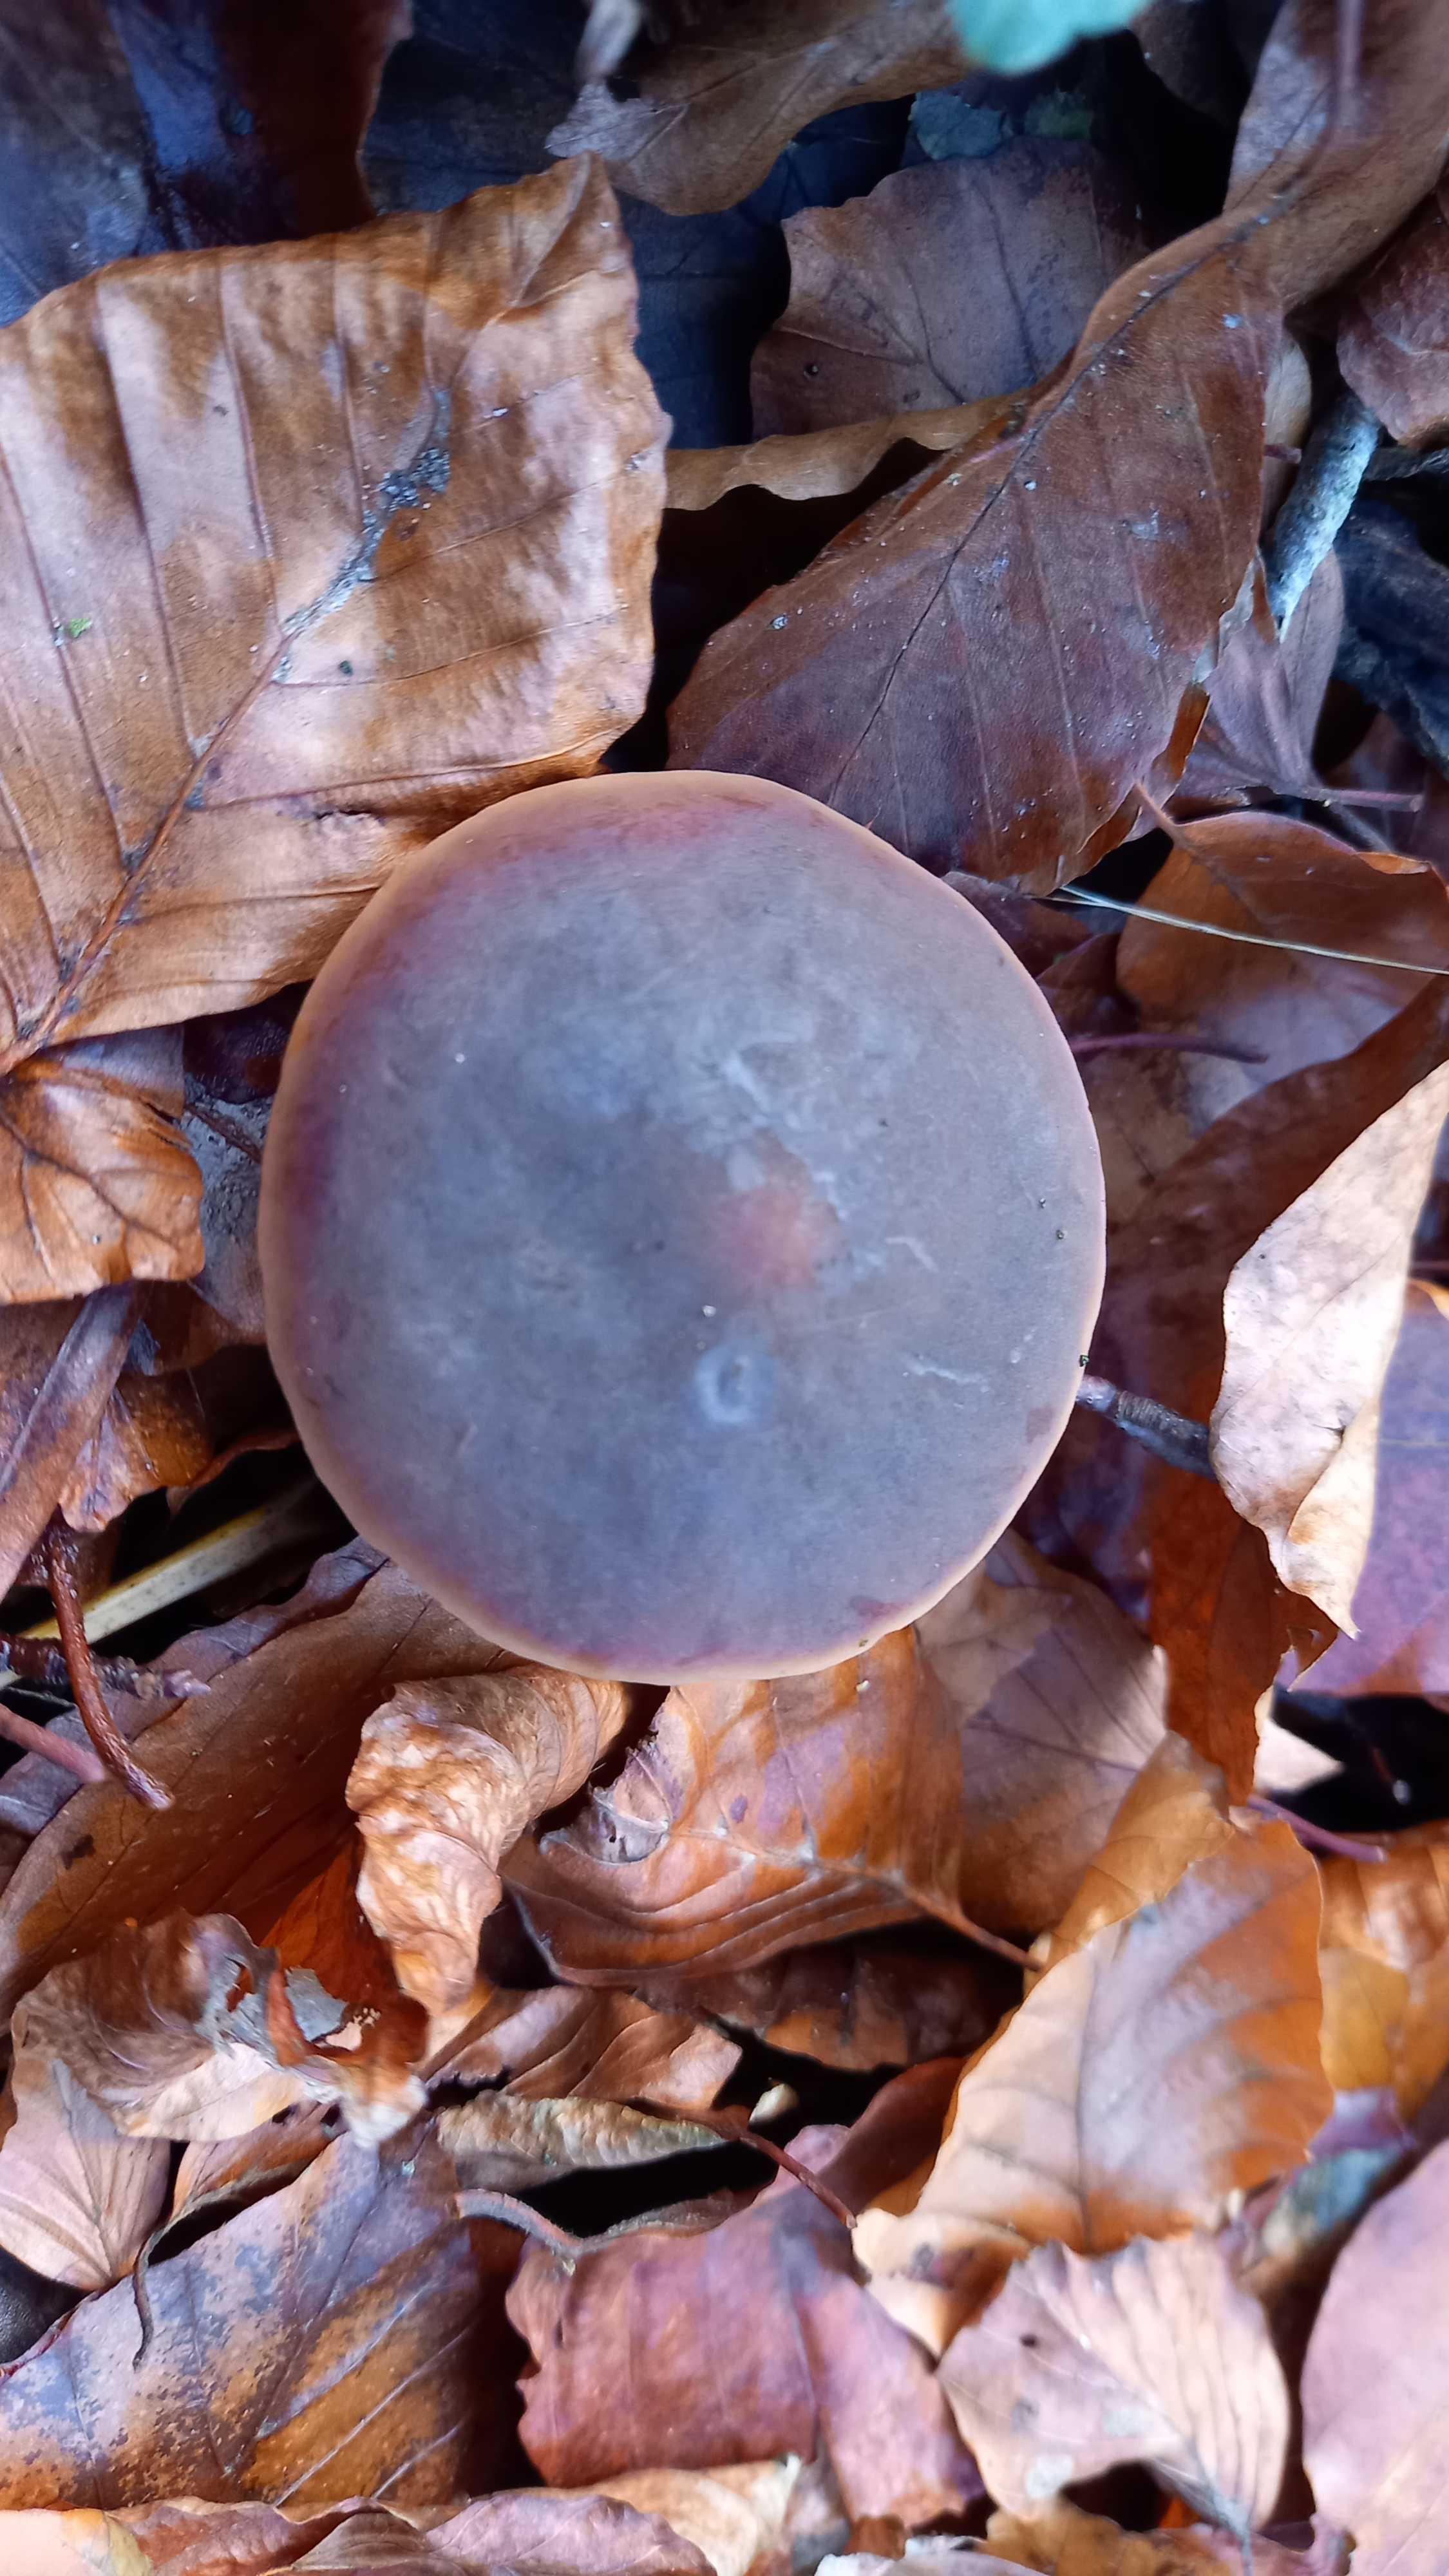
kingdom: Fungi
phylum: Basidiomycota
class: Agaricomycetes
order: Agaricales
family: Macrocystidiaceae
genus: Macrocystidia
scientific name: Macrocystidia cucumis
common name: agurkehat
